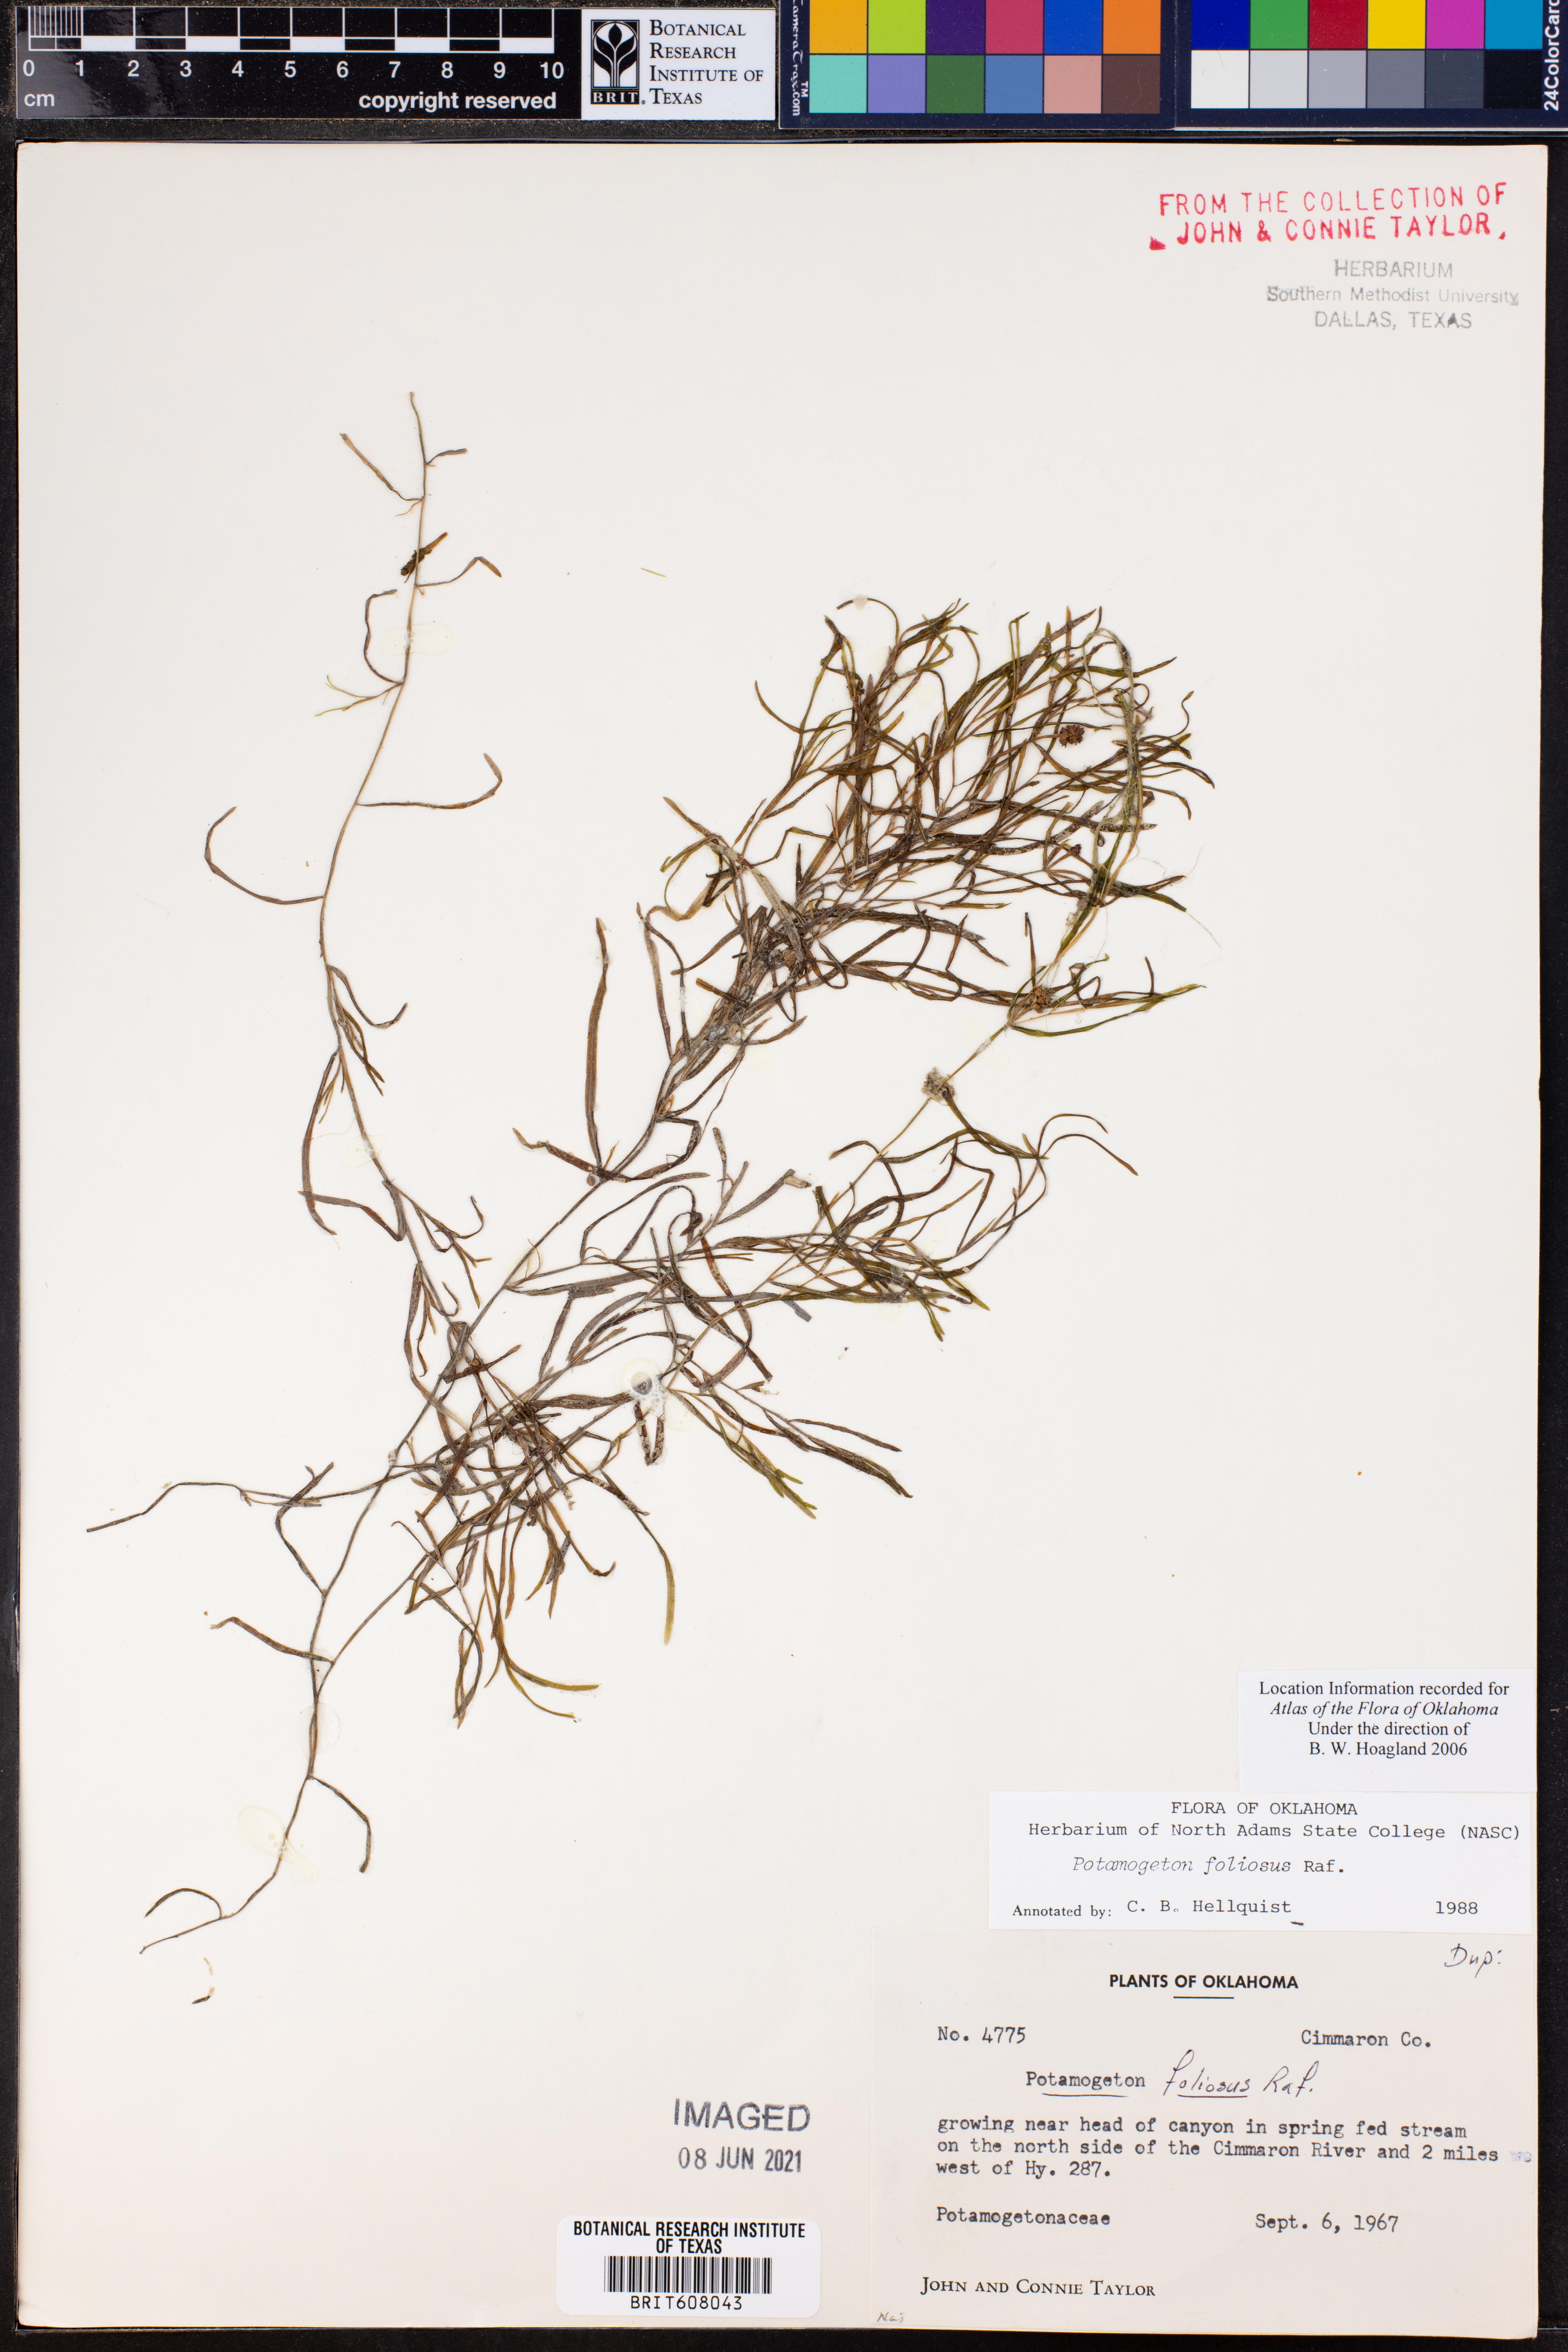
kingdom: Plantae
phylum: Tracheophyta
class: Liliopsida
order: Alismatales
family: Potamogetonaceae
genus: Potamogeton
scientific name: Potamogeton foliosus
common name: Leafy pondweed
